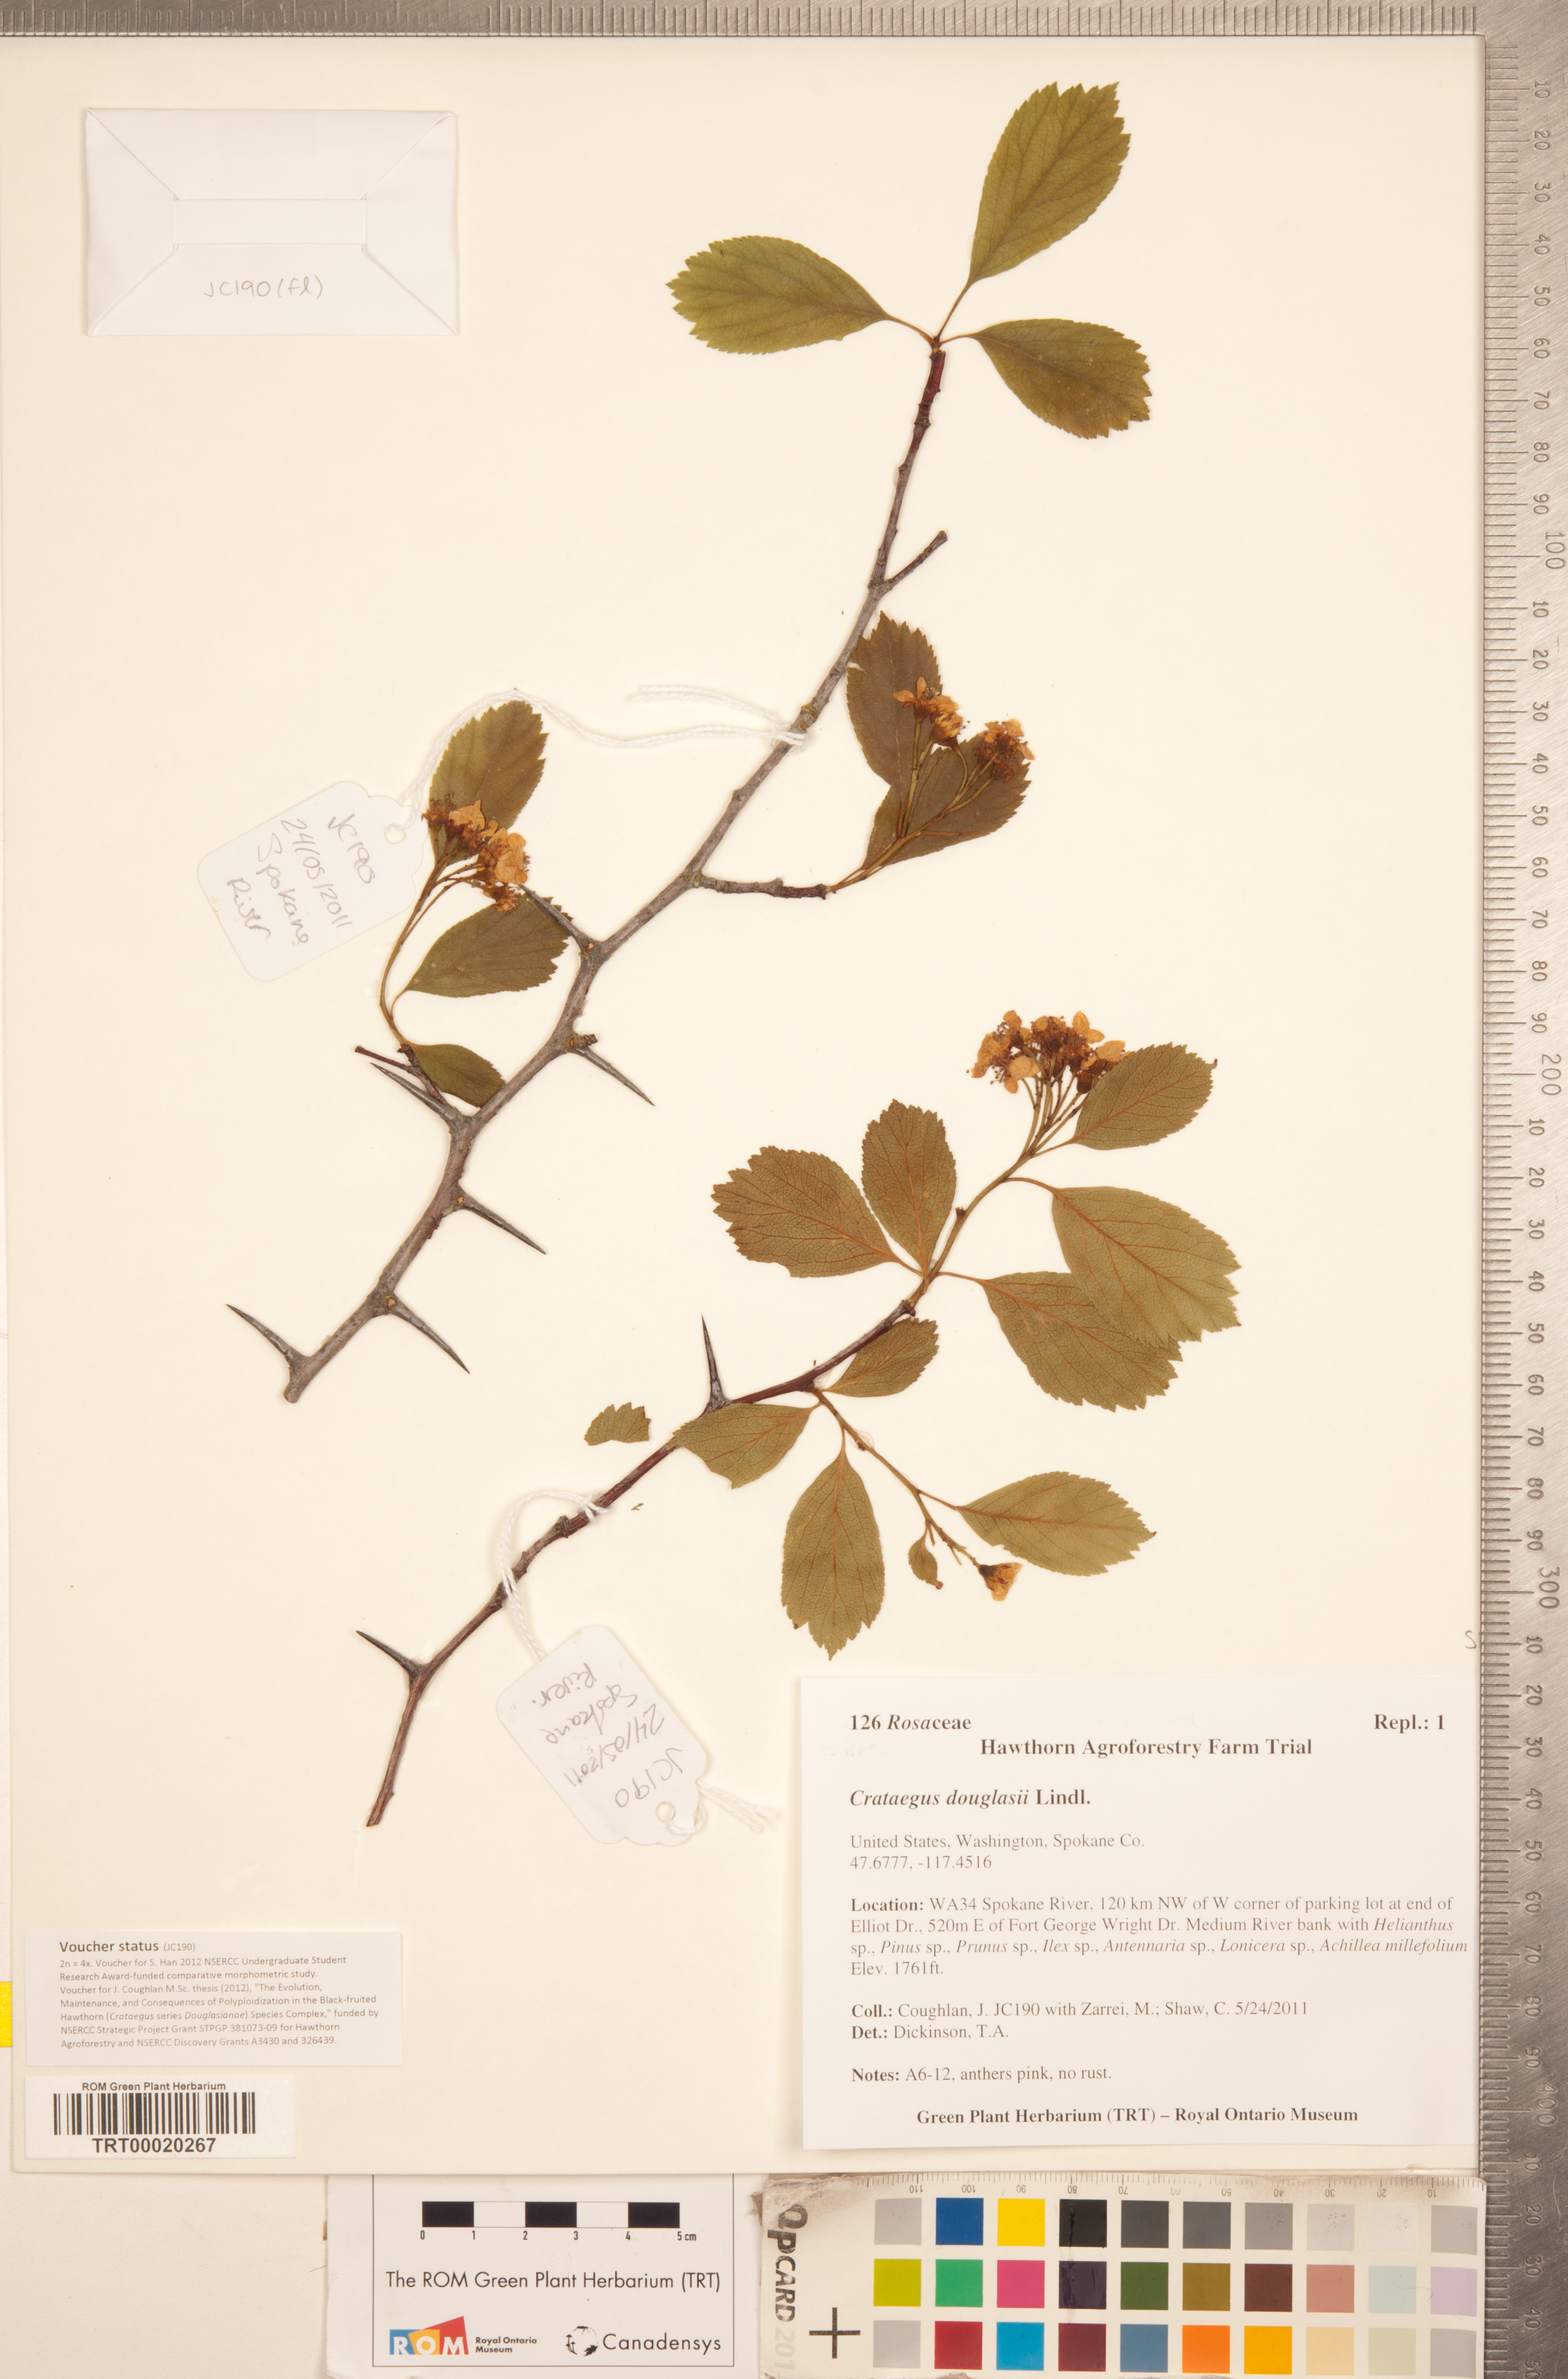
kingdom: Plantae
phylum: Tracheophyta
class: Magnoliopsida
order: Rosales
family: Rosaceae
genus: Crataegus
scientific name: Crataegus douglasii
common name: Black hawthorn
